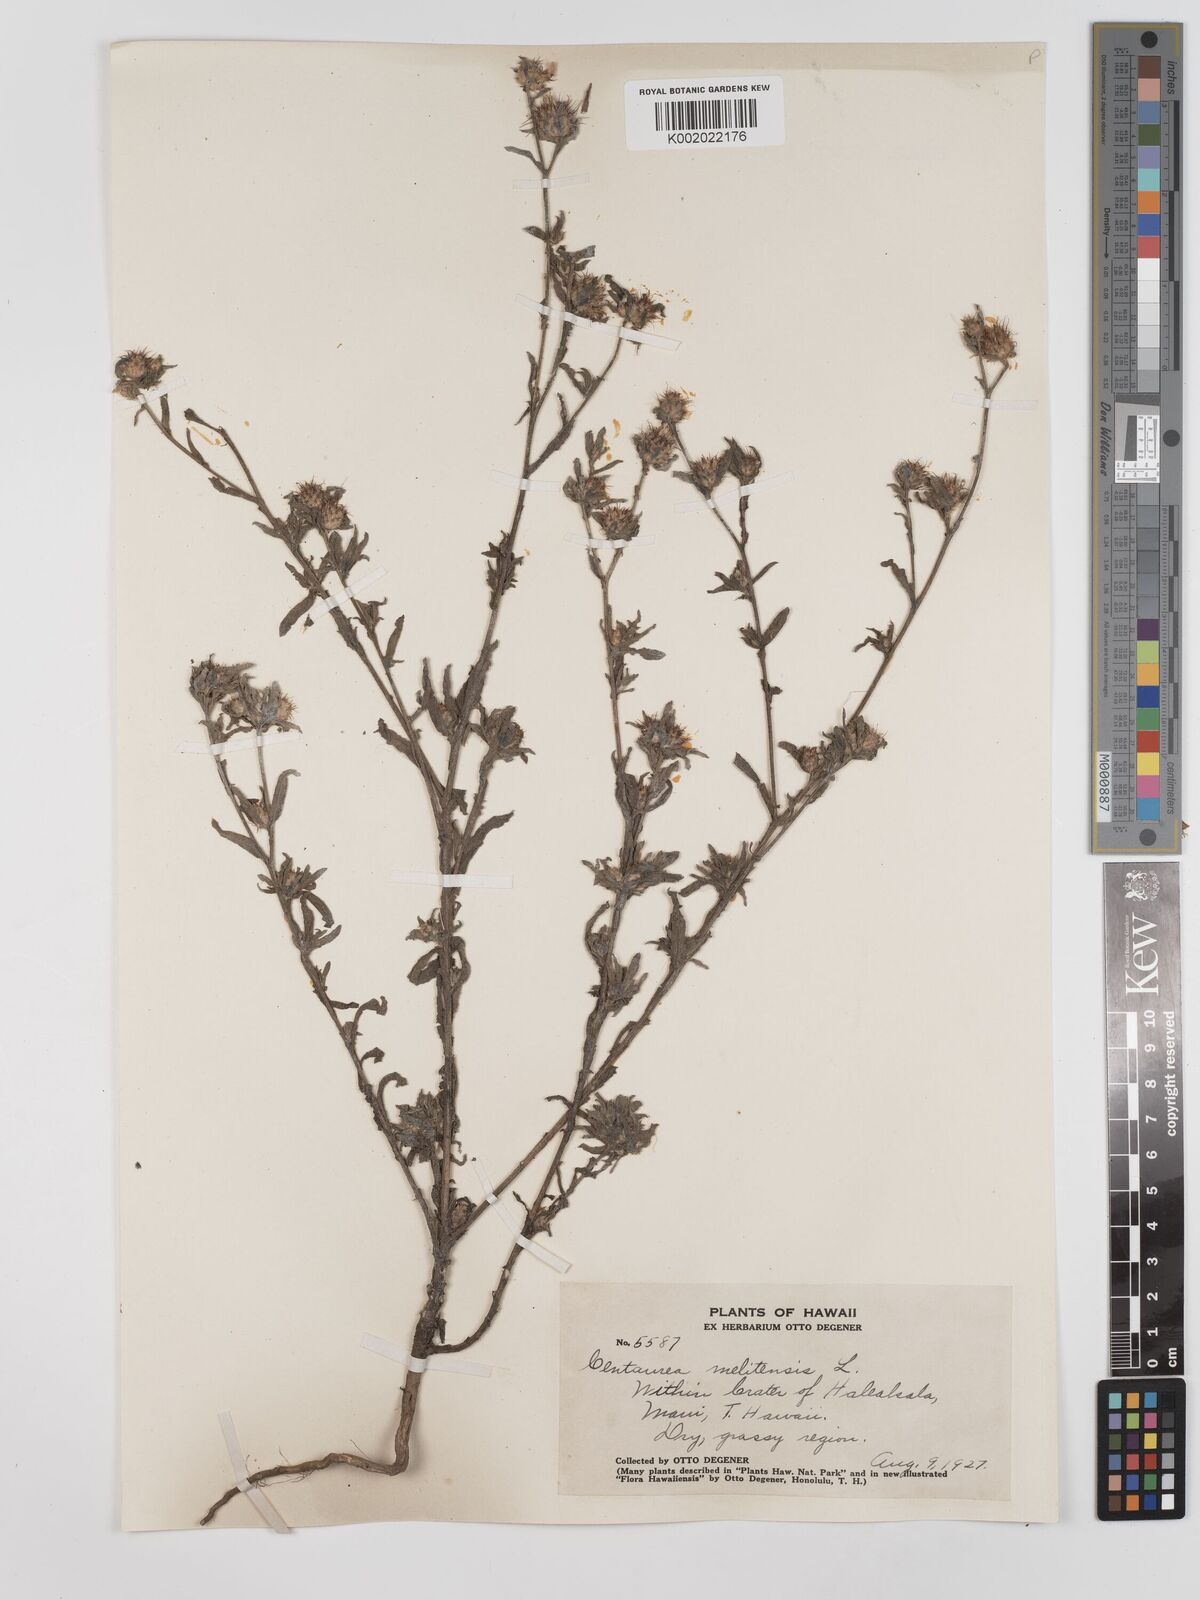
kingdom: Plantae
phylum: Tracheophyta
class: Magnoliopsida
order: Asterales
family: Asteraceae
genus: Centaurea
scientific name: Centaurea melitensis
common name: Maltese star-thistle
